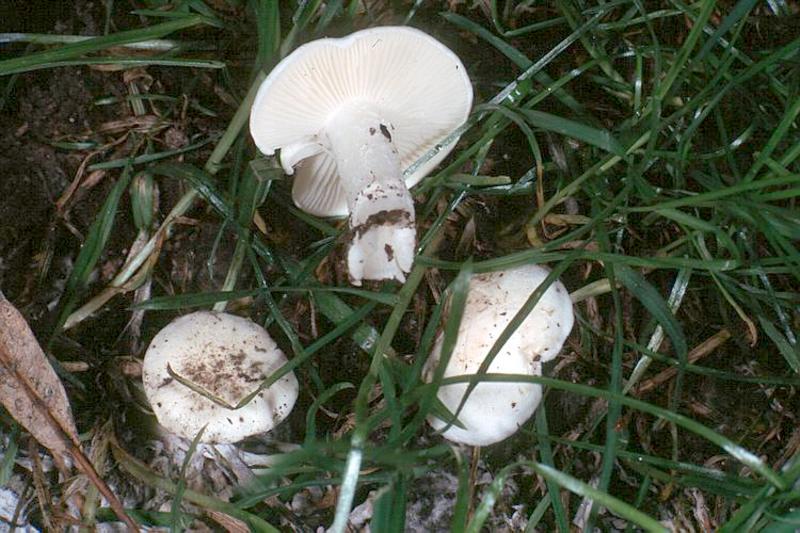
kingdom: Fungi
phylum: Basidiomycota
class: Agaricomycetes
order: Agaricales
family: Lyophyllaceae
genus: Tricholomella
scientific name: Tricholomella constricta
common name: Mealy domecap
